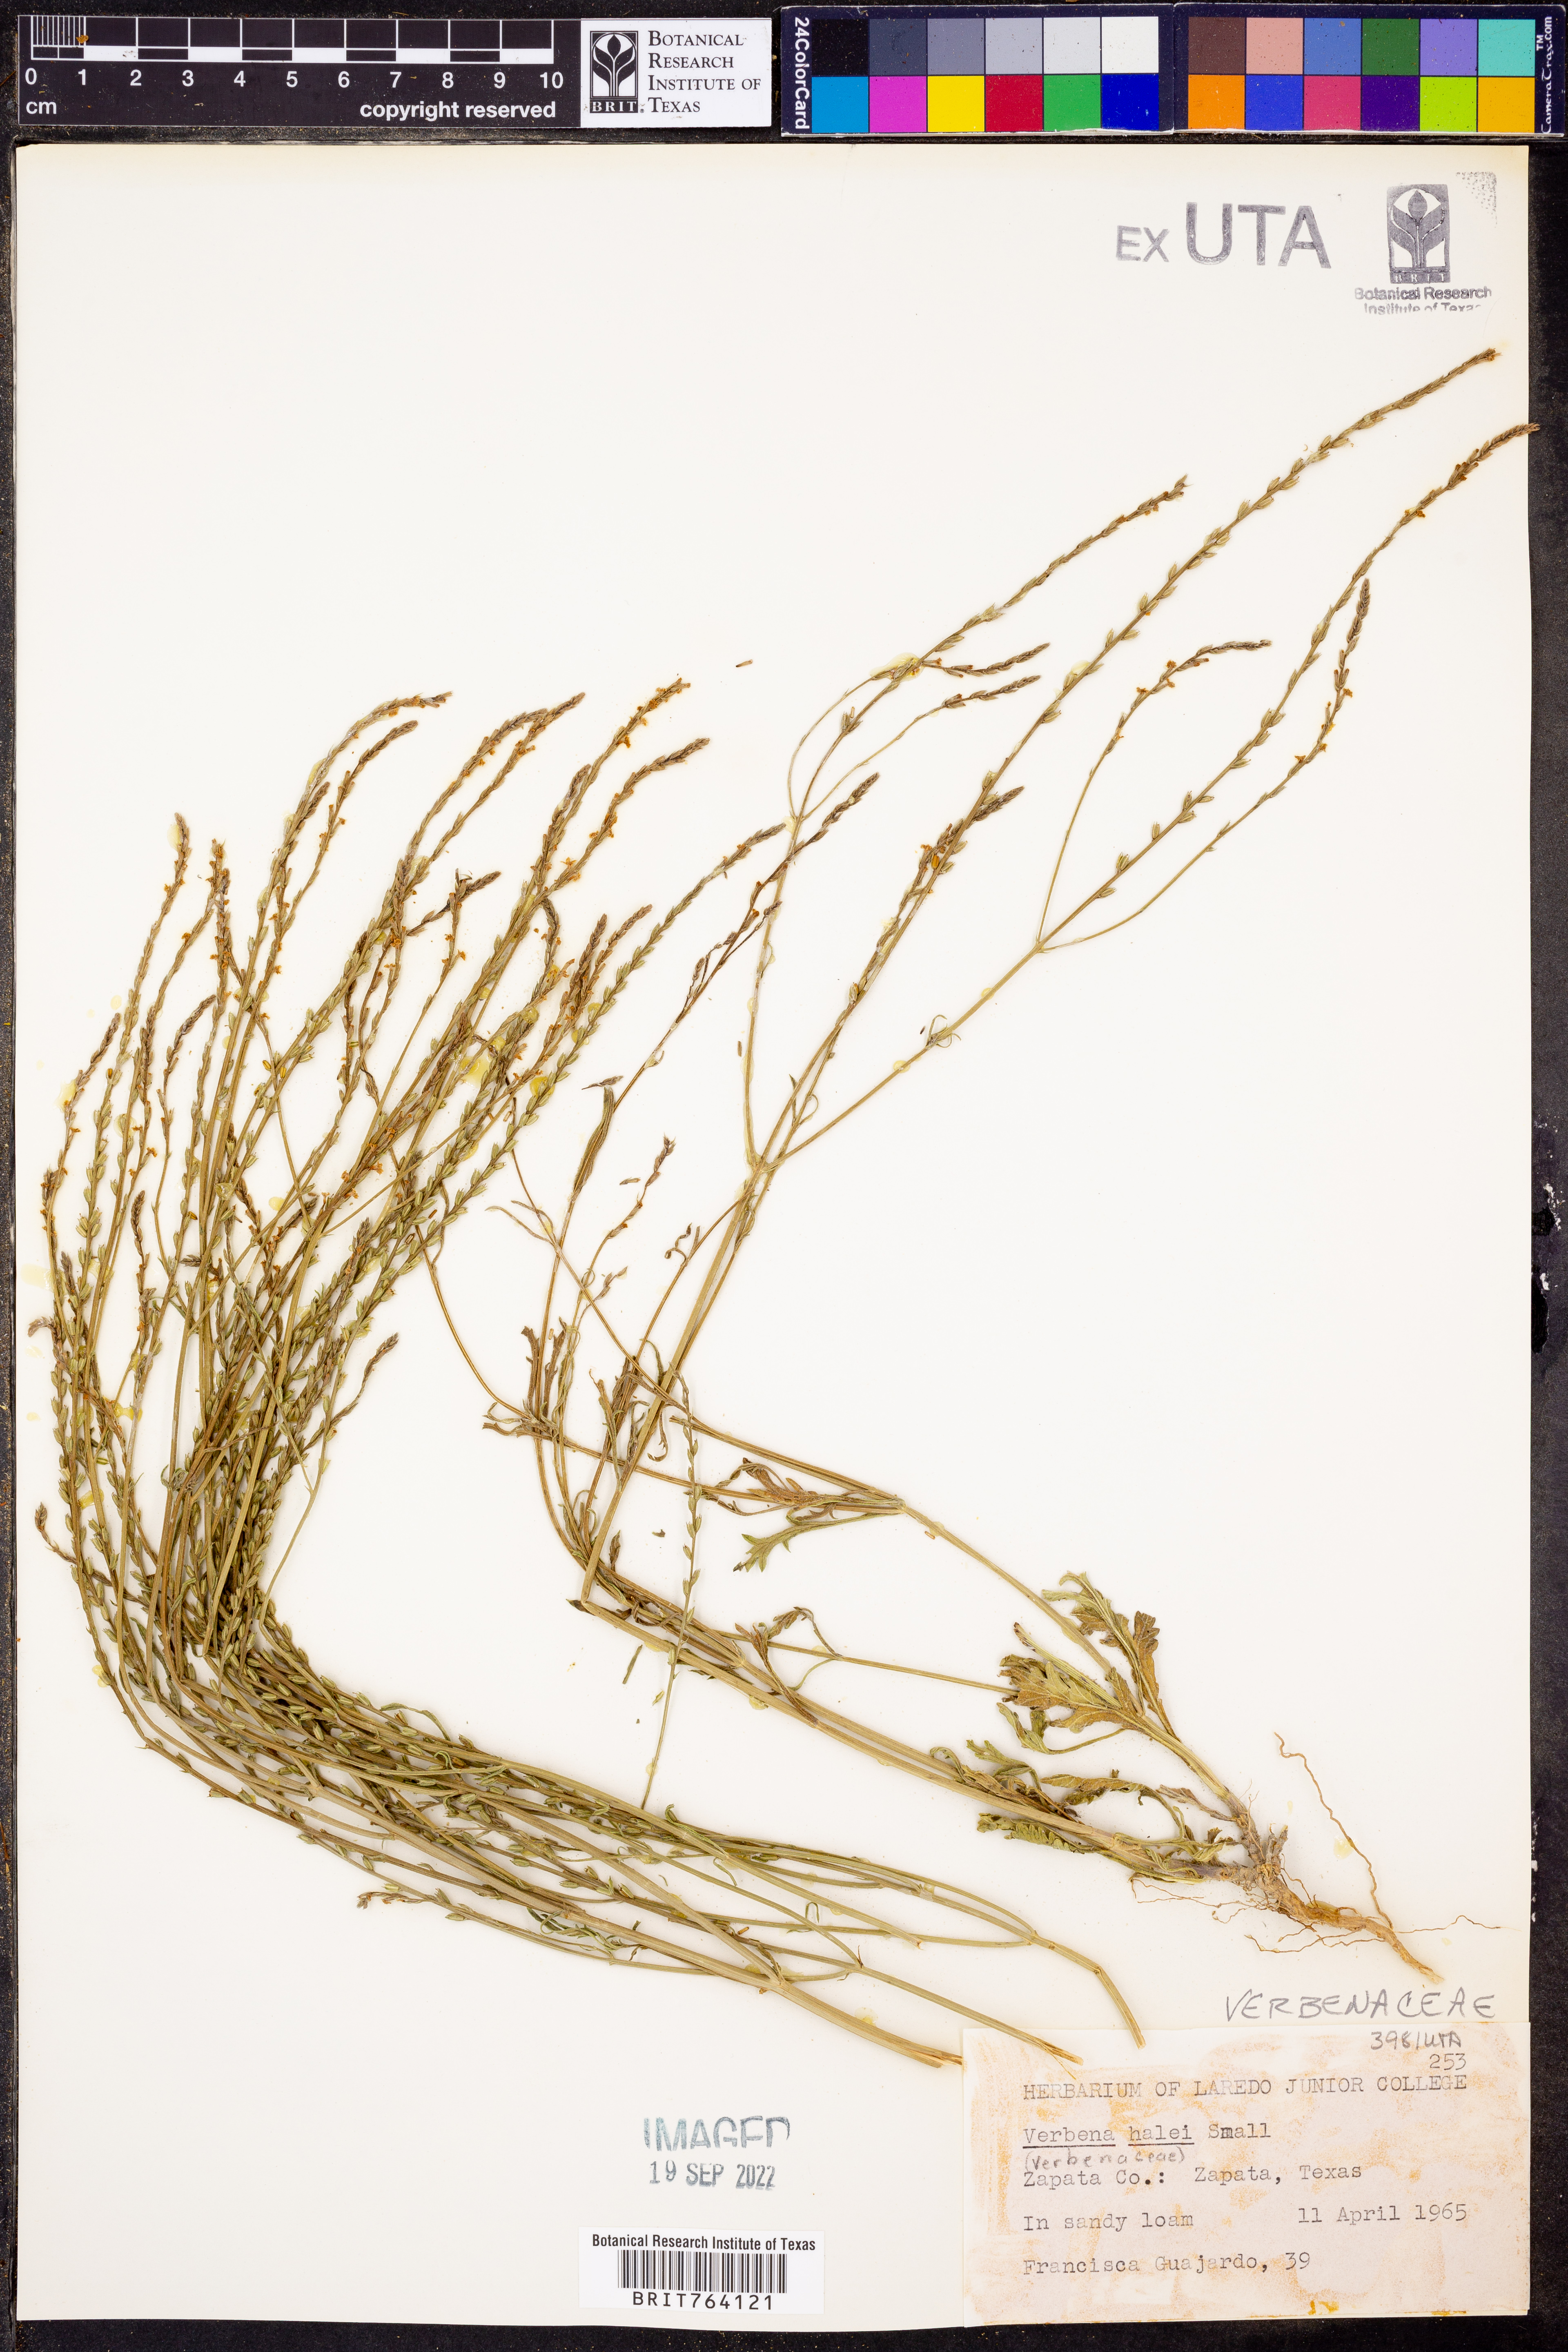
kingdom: Plantae
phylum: Tracheophyta
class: Magnoliopsida
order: Lamiales
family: Verbenaceae
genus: Verbena
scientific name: Verbena halei
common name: Texas vervain
